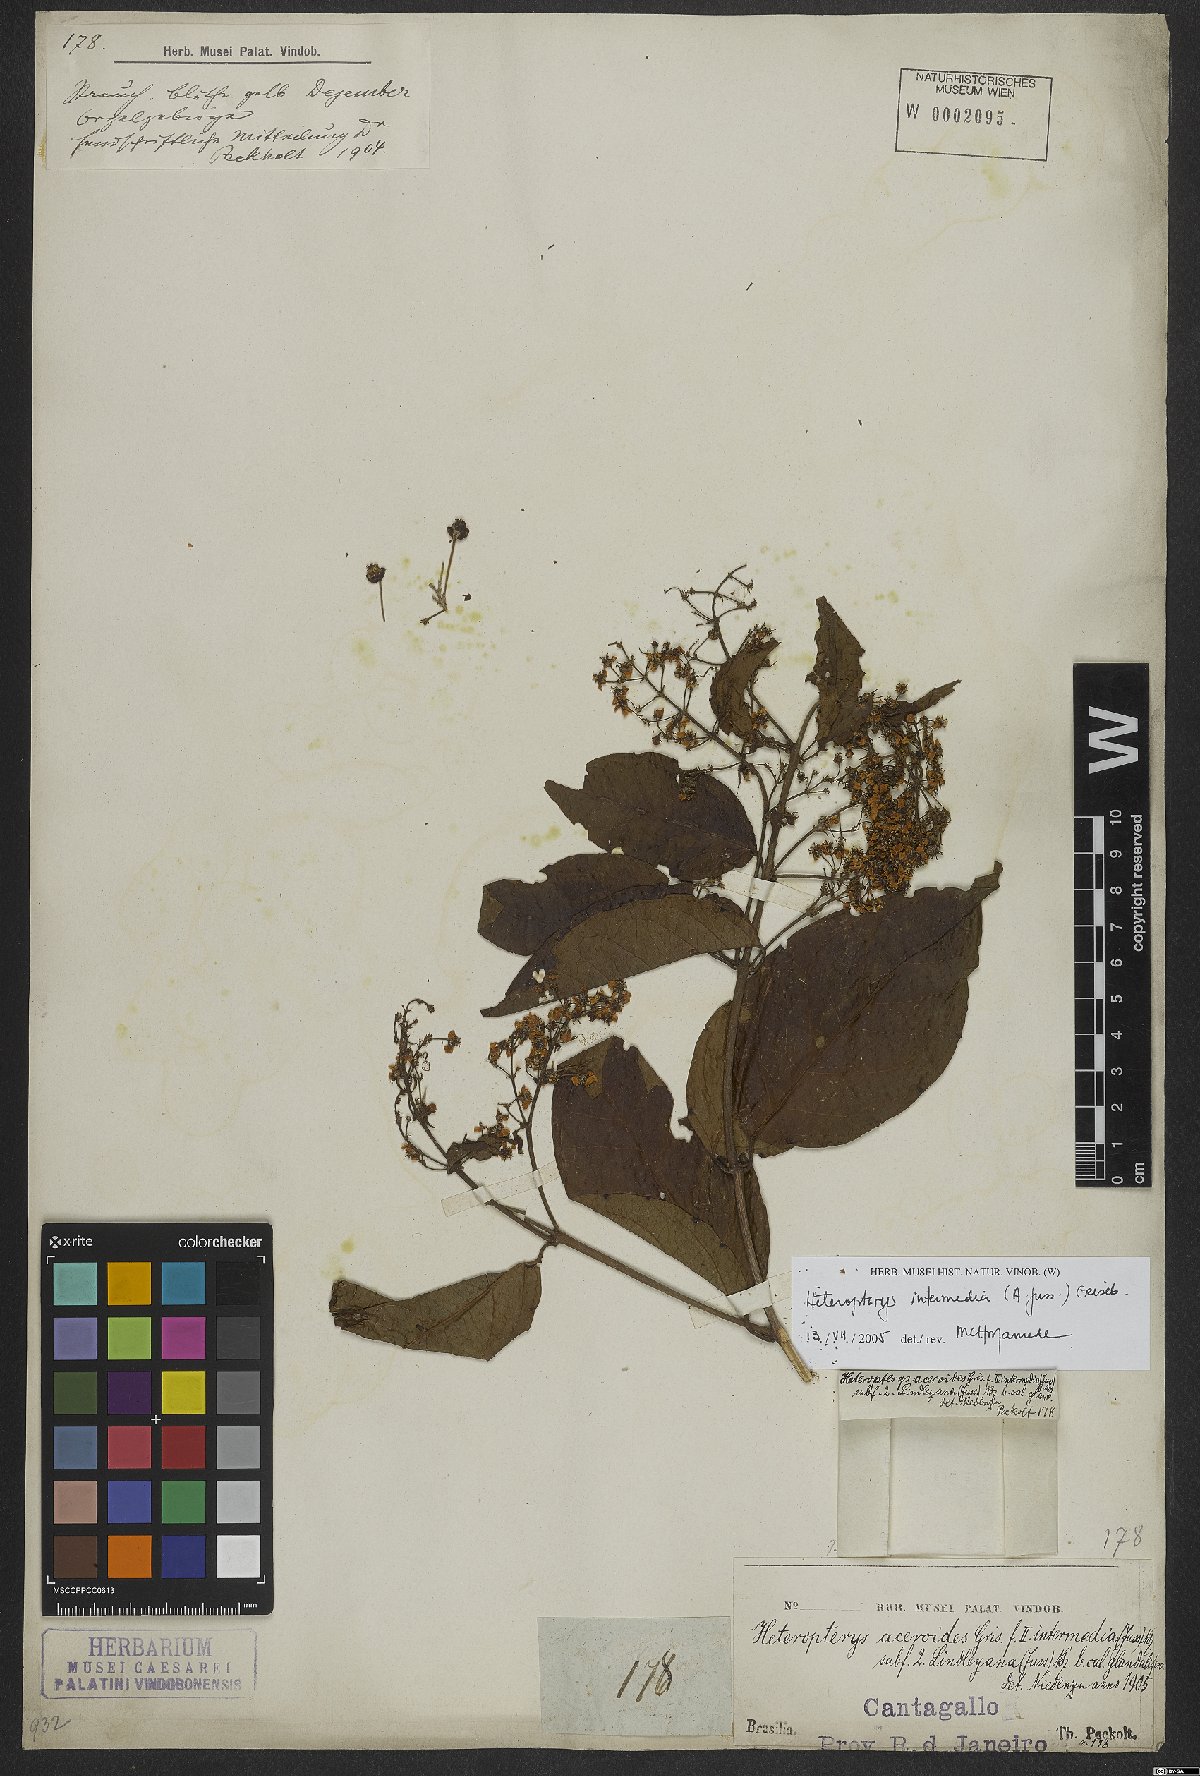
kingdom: Plantae
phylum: Tracheophyta
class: Magnoliopsida
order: Malpighiales
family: Malpighiaceae
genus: Heteropterys
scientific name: Heteropterys intermedia
